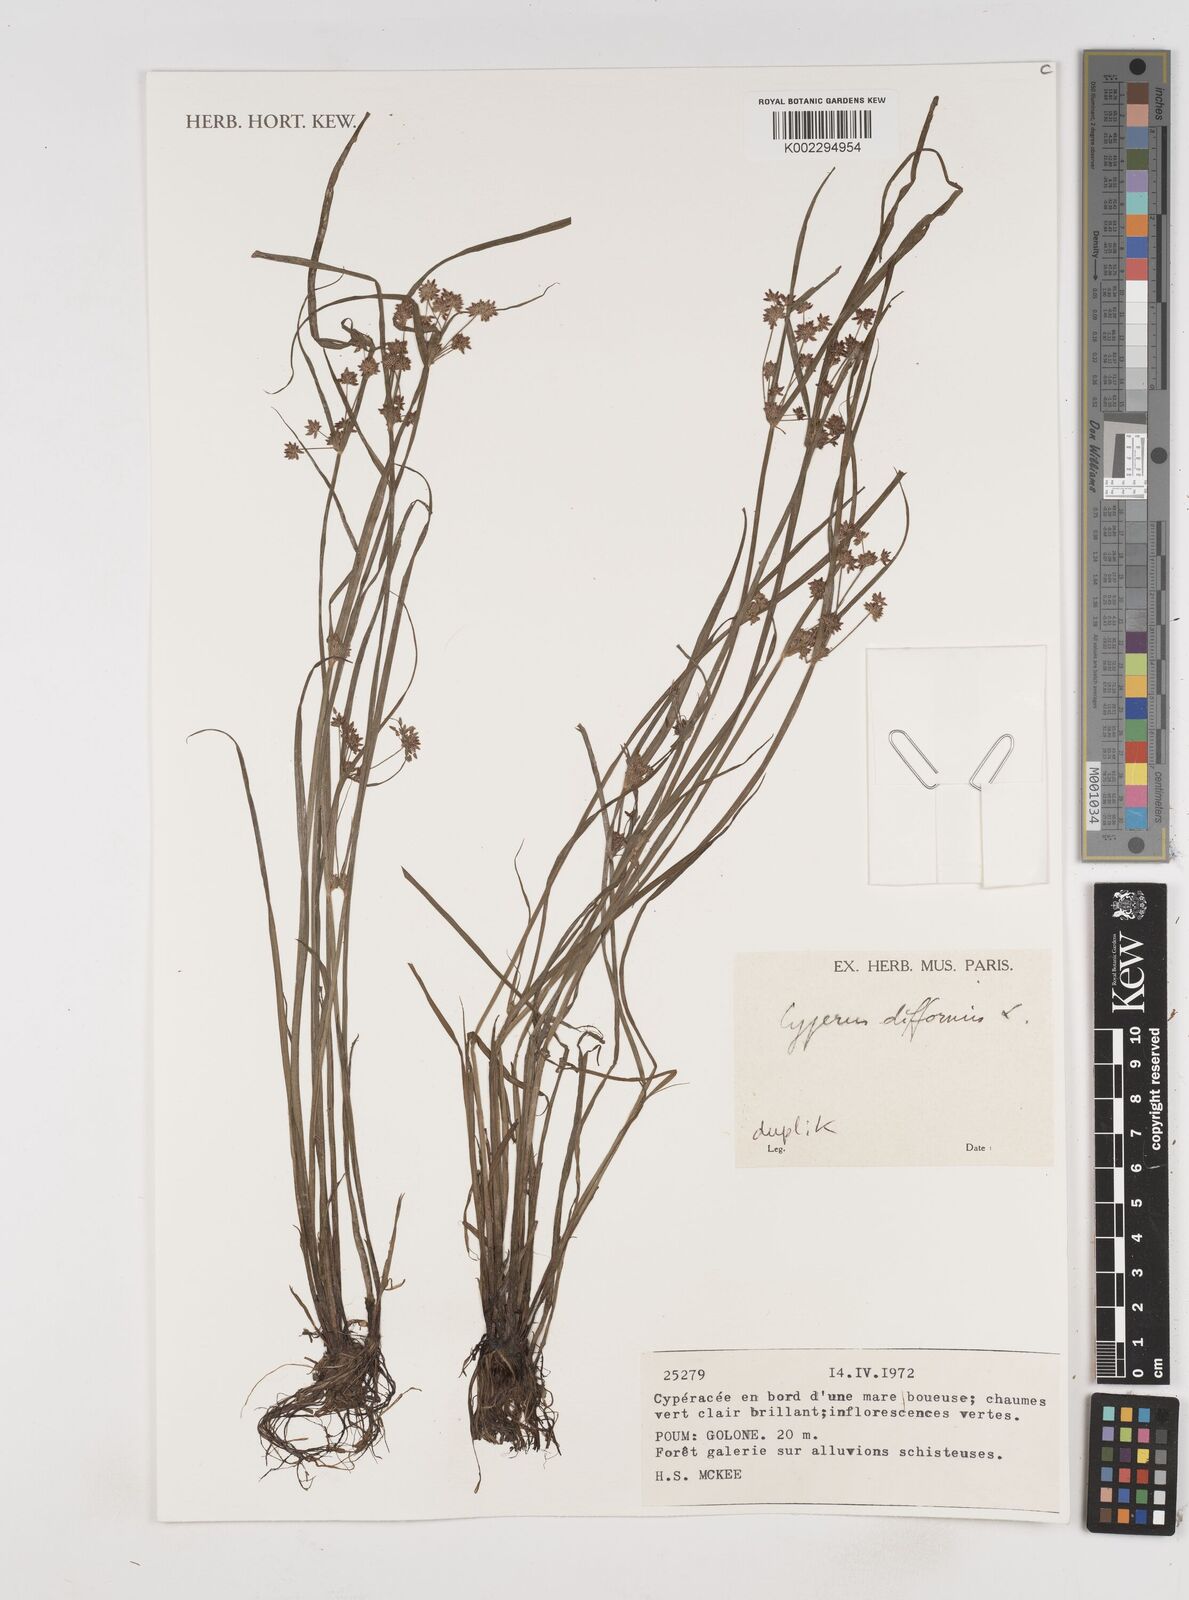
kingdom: Plantae
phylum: Tracheophyta
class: Liliopsida
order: Poales
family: Cyperaceae
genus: Cyperus
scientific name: Cyperus difformis
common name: Variable flatsedge
